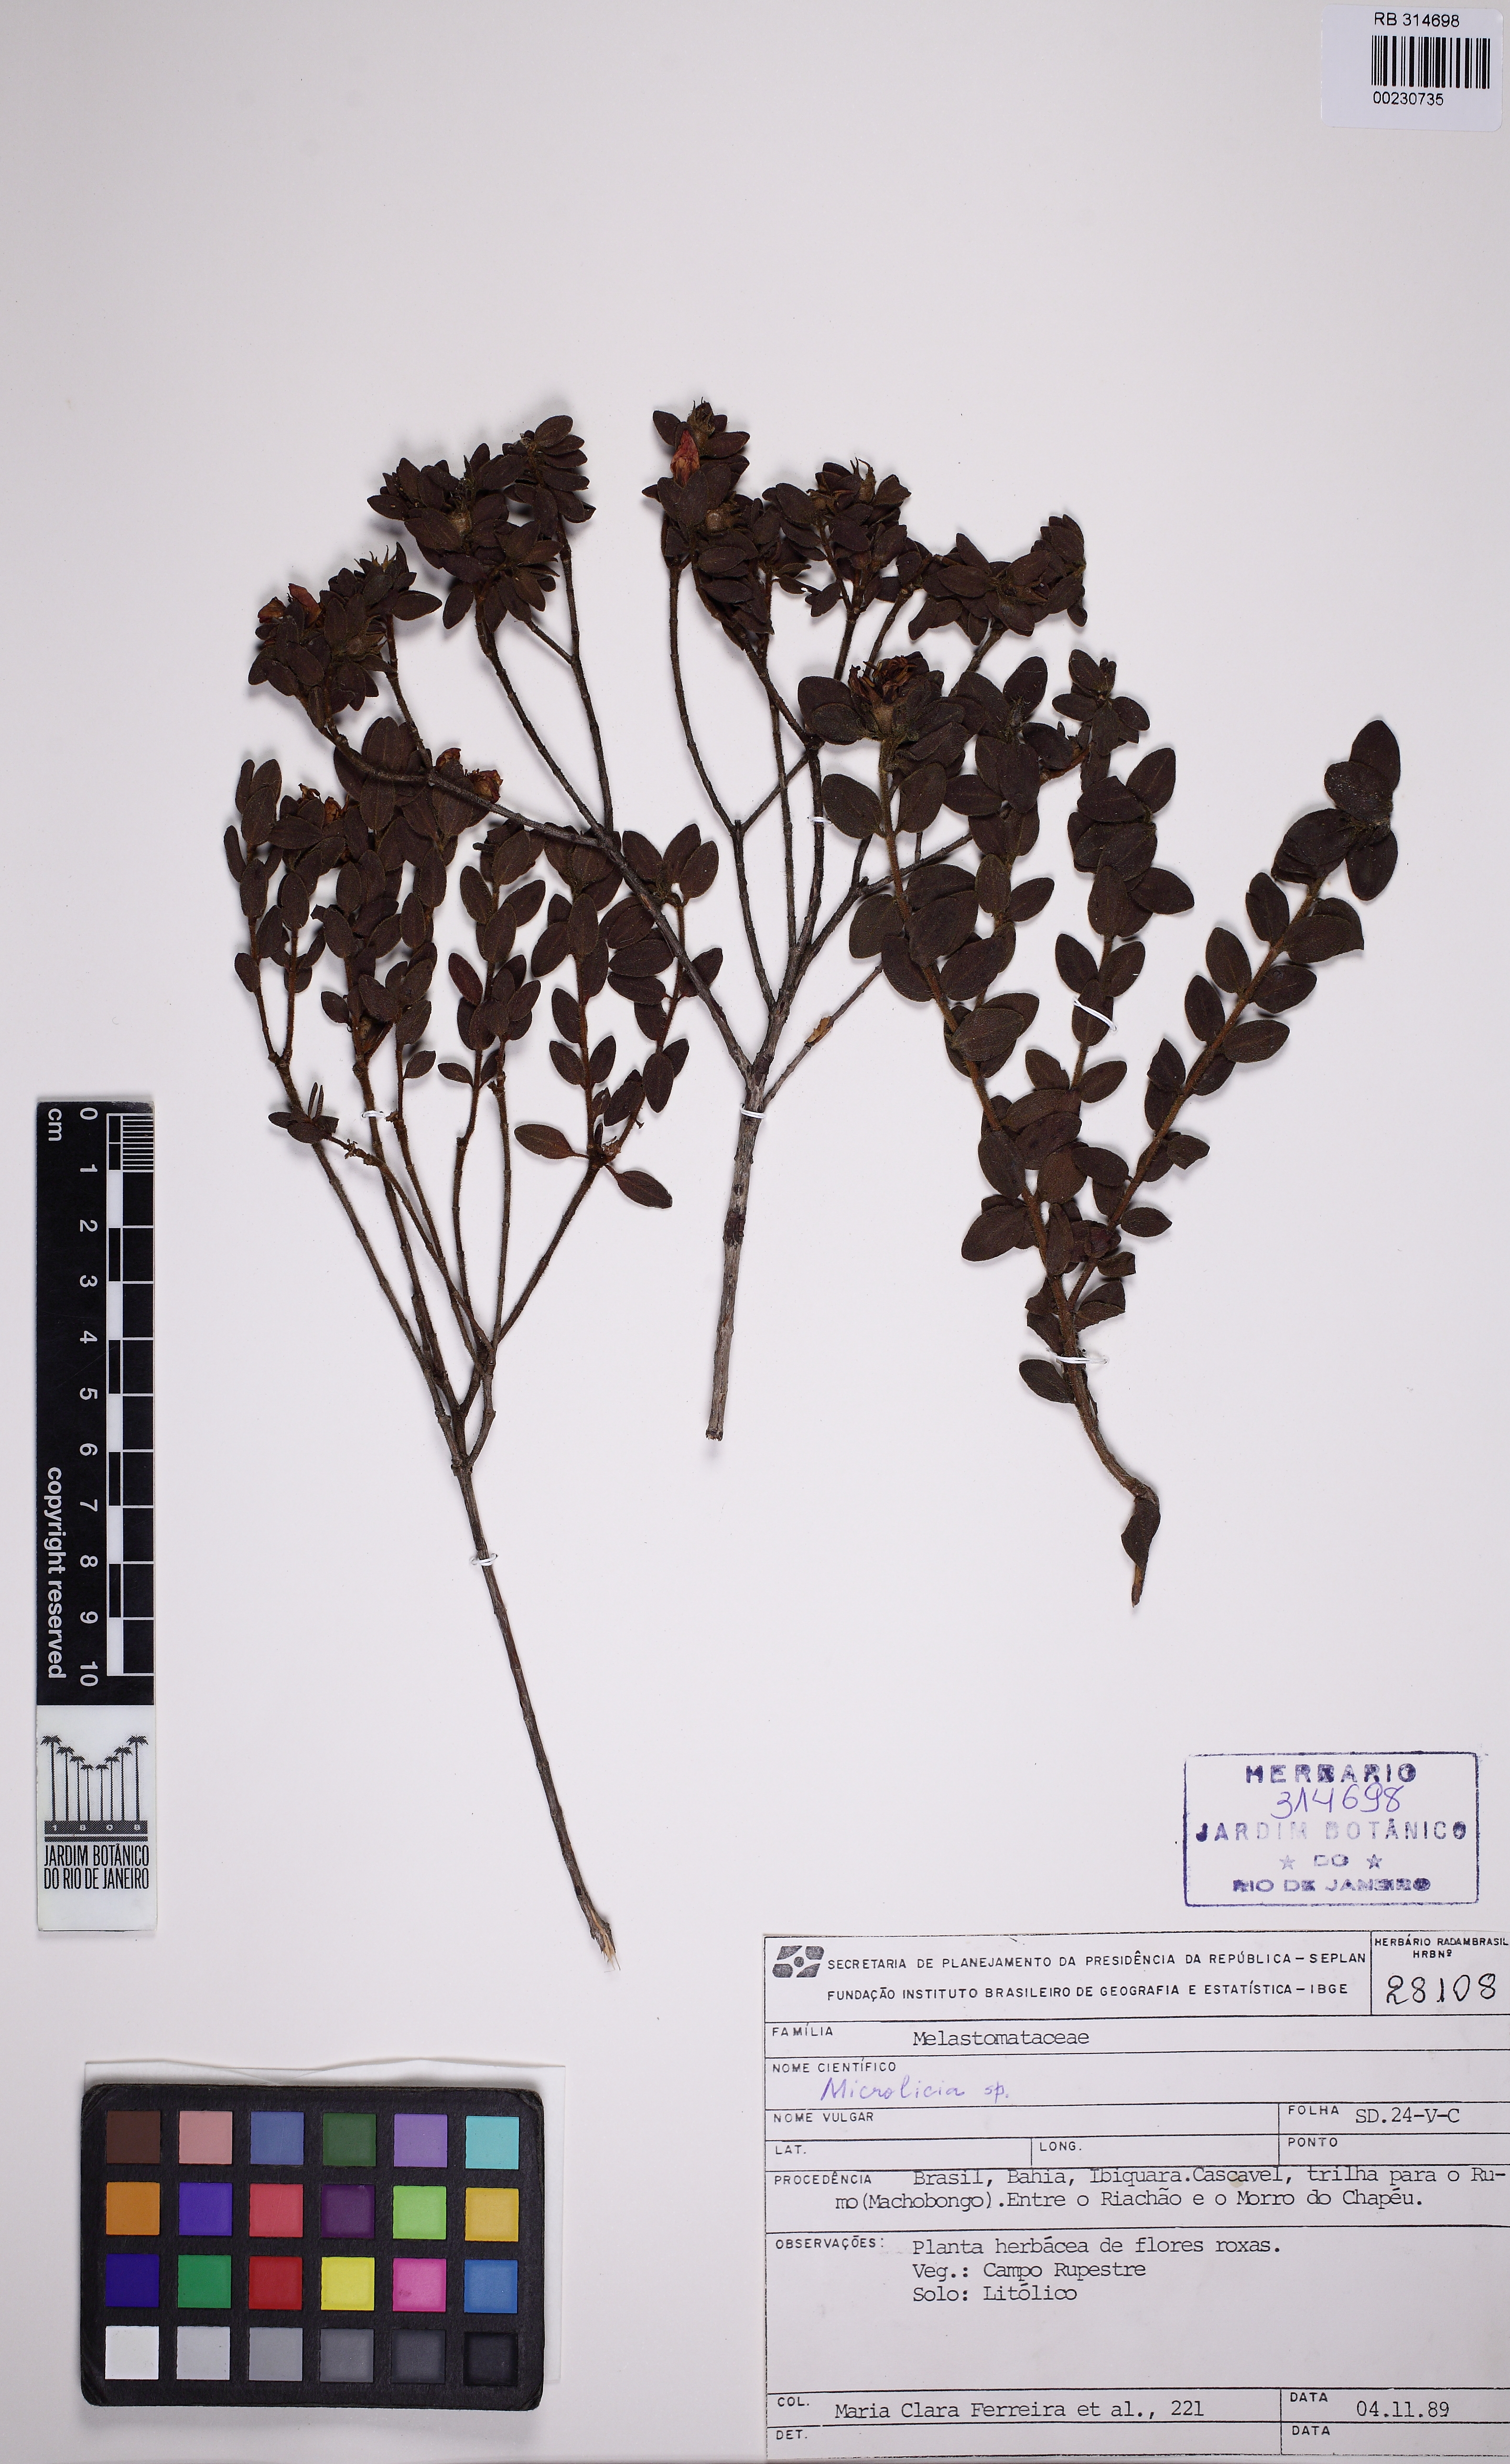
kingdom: Plantae
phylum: Tracheophyta
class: Magnoliopsida
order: Myrtales
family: Melastomataceae
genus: Microlicia
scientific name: Microlicia rotundifolia
